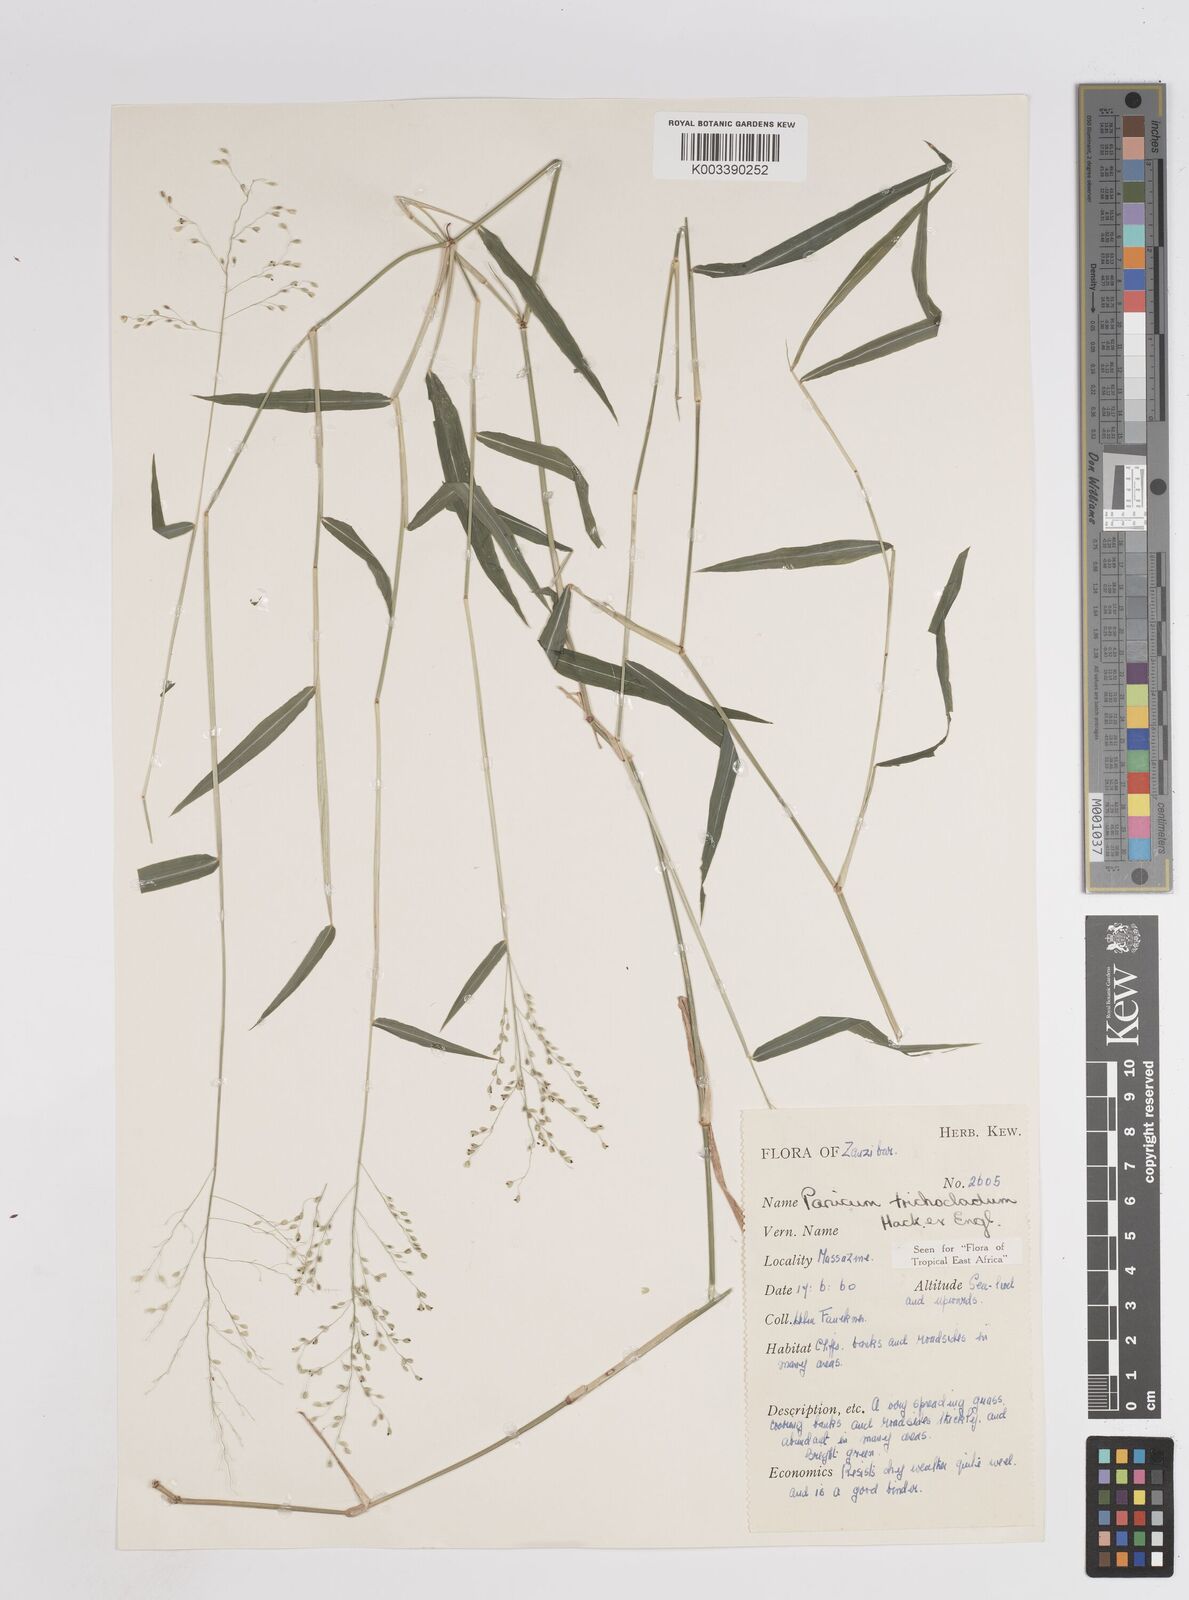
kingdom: Plantae
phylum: Tracheophyta
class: Liliopsida
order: Poales
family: Poaceae
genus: Panicum
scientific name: Panicum trichocladum
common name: Donkey grass
